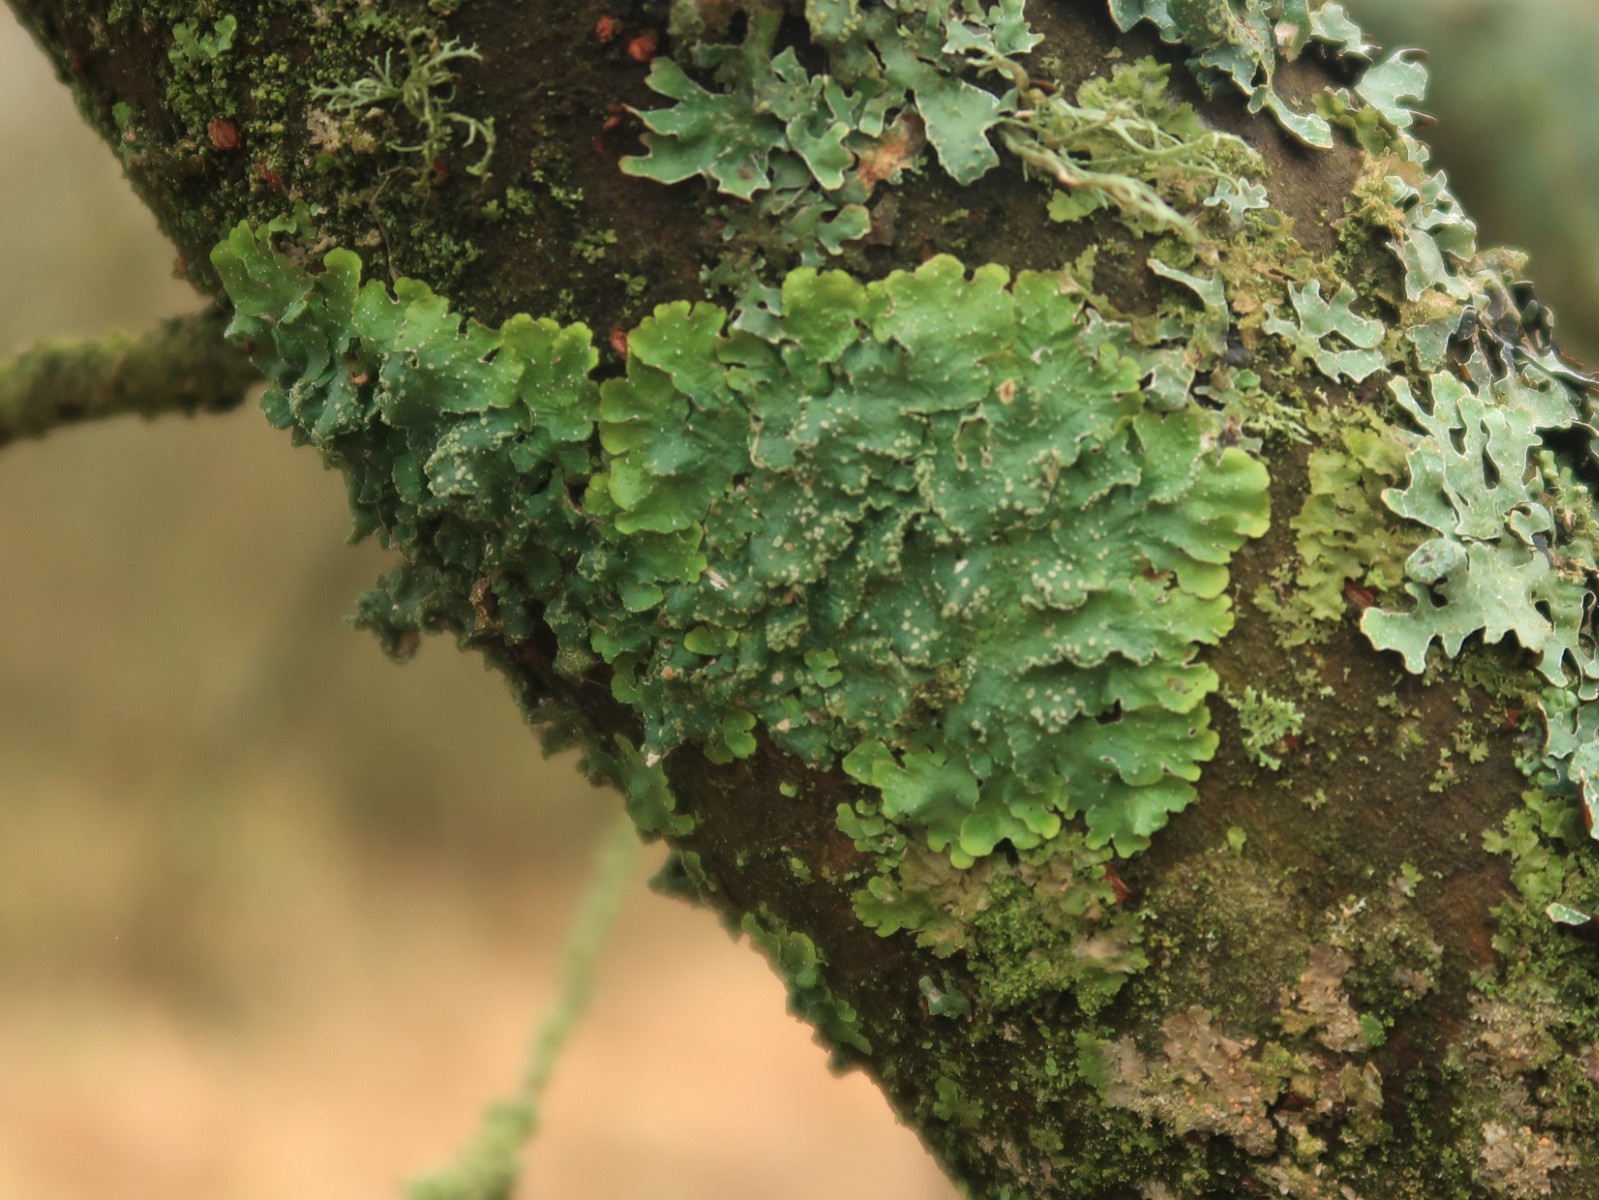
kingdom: Fungi
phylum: Ascomycota
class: Lecanoromycetes
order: Lecanorales
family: Parmeliaceae
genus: Punctelia
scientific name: Punctelia subrudecta
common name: punkt-skållav
